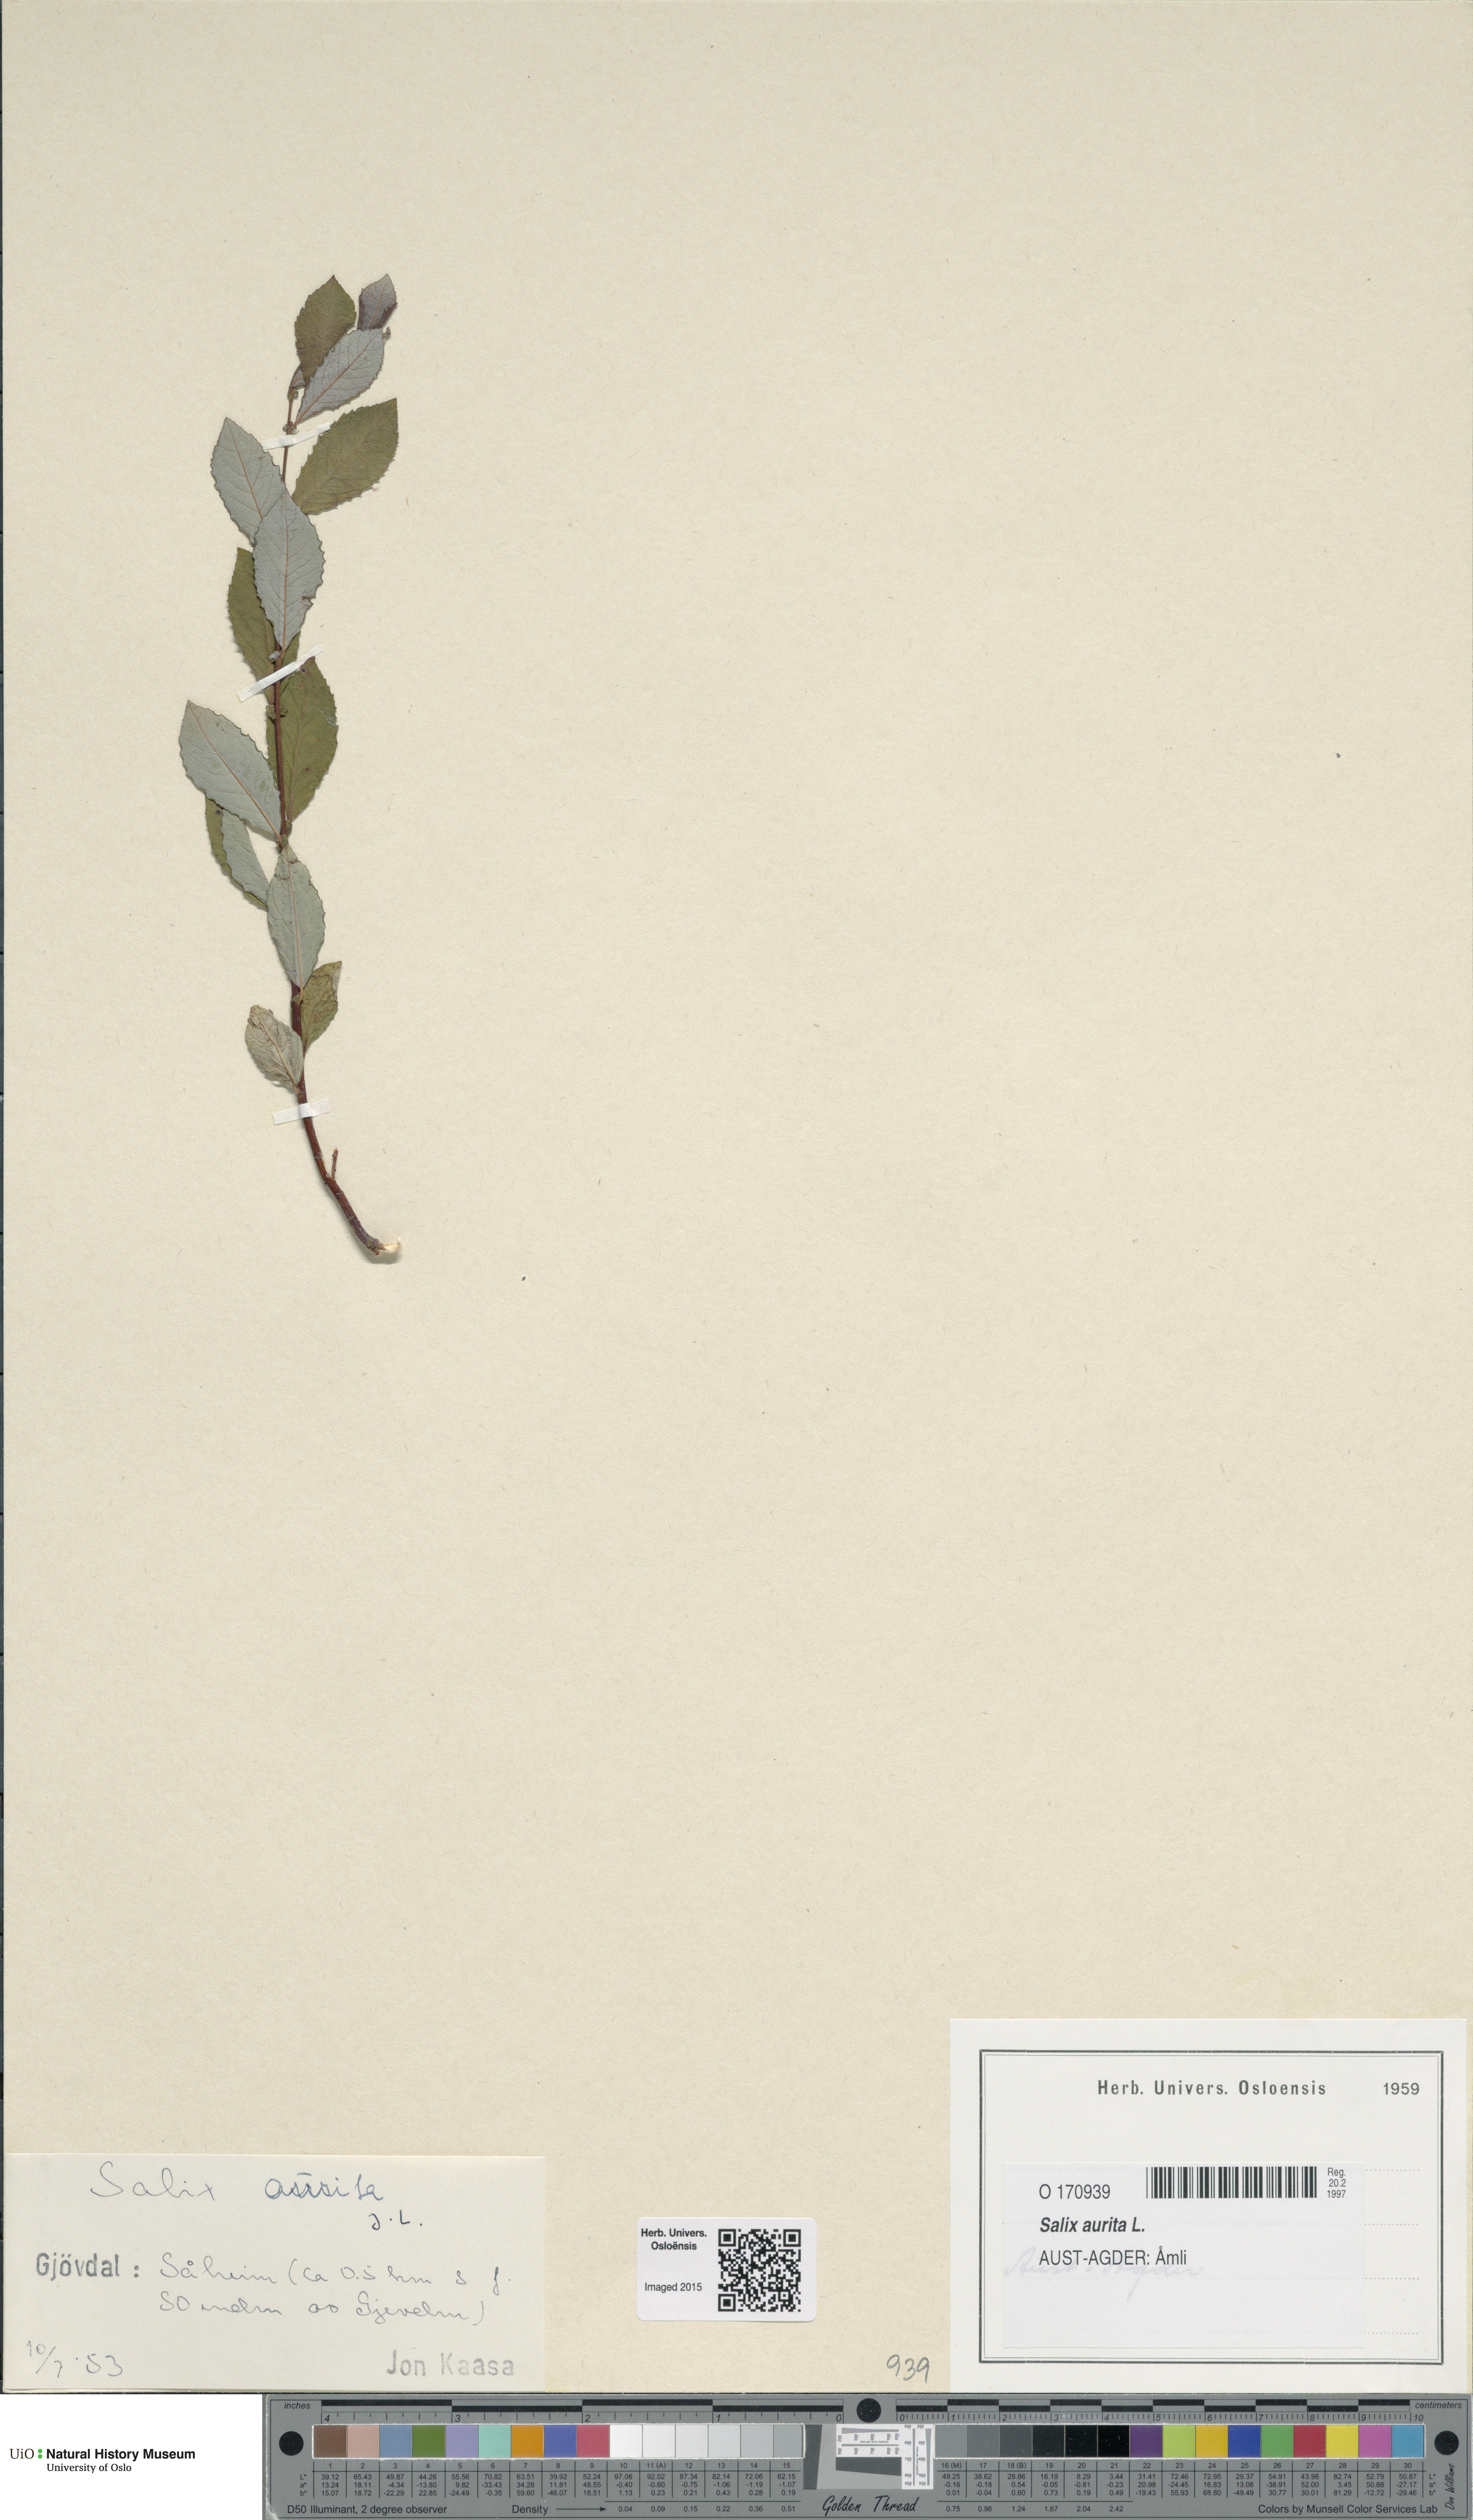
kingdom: Plantae
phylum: Tracheophyta
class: Magnoliopsida
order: Malpighiales
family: Salicaceae
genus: Salix
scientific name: Salix aurita
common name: Eared willow
